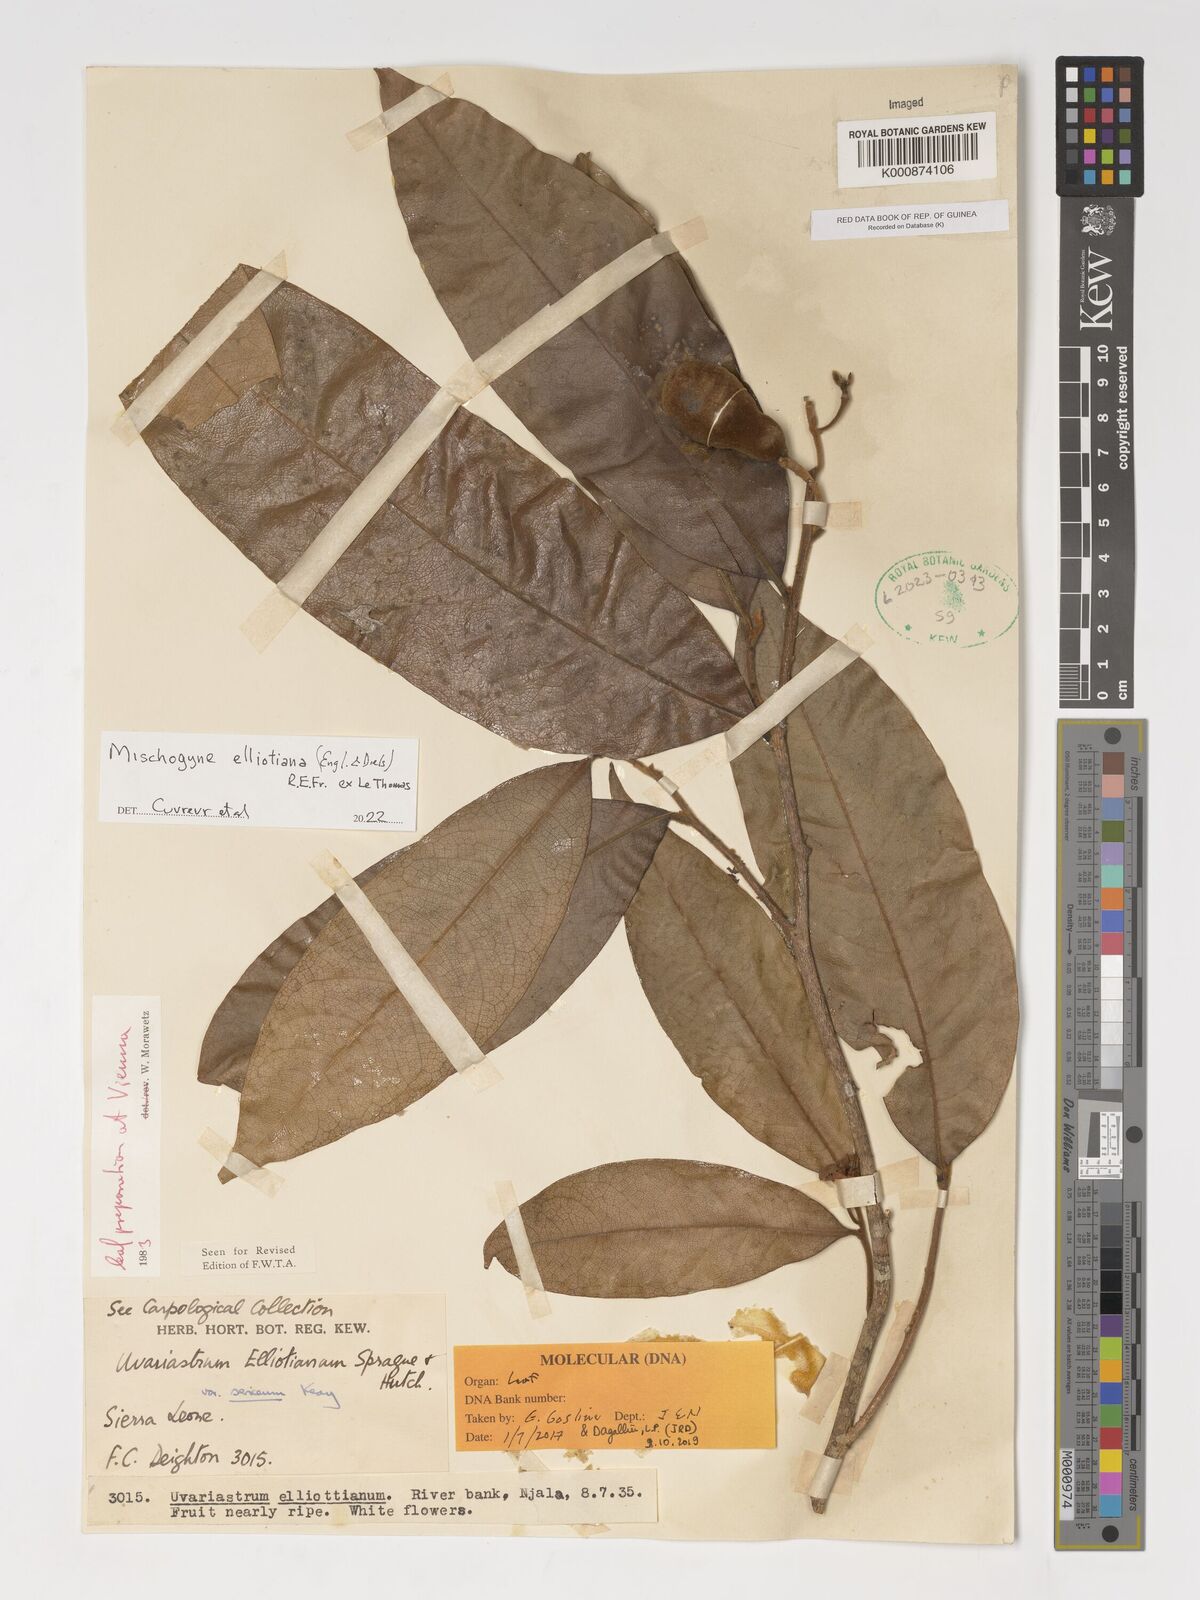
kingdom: Plantae
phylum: Tracheophyta
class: Magnoliopsida
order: Magnoliales
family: Annonaceae
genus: Mischogyne
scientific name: Mischogyne elliotianum
